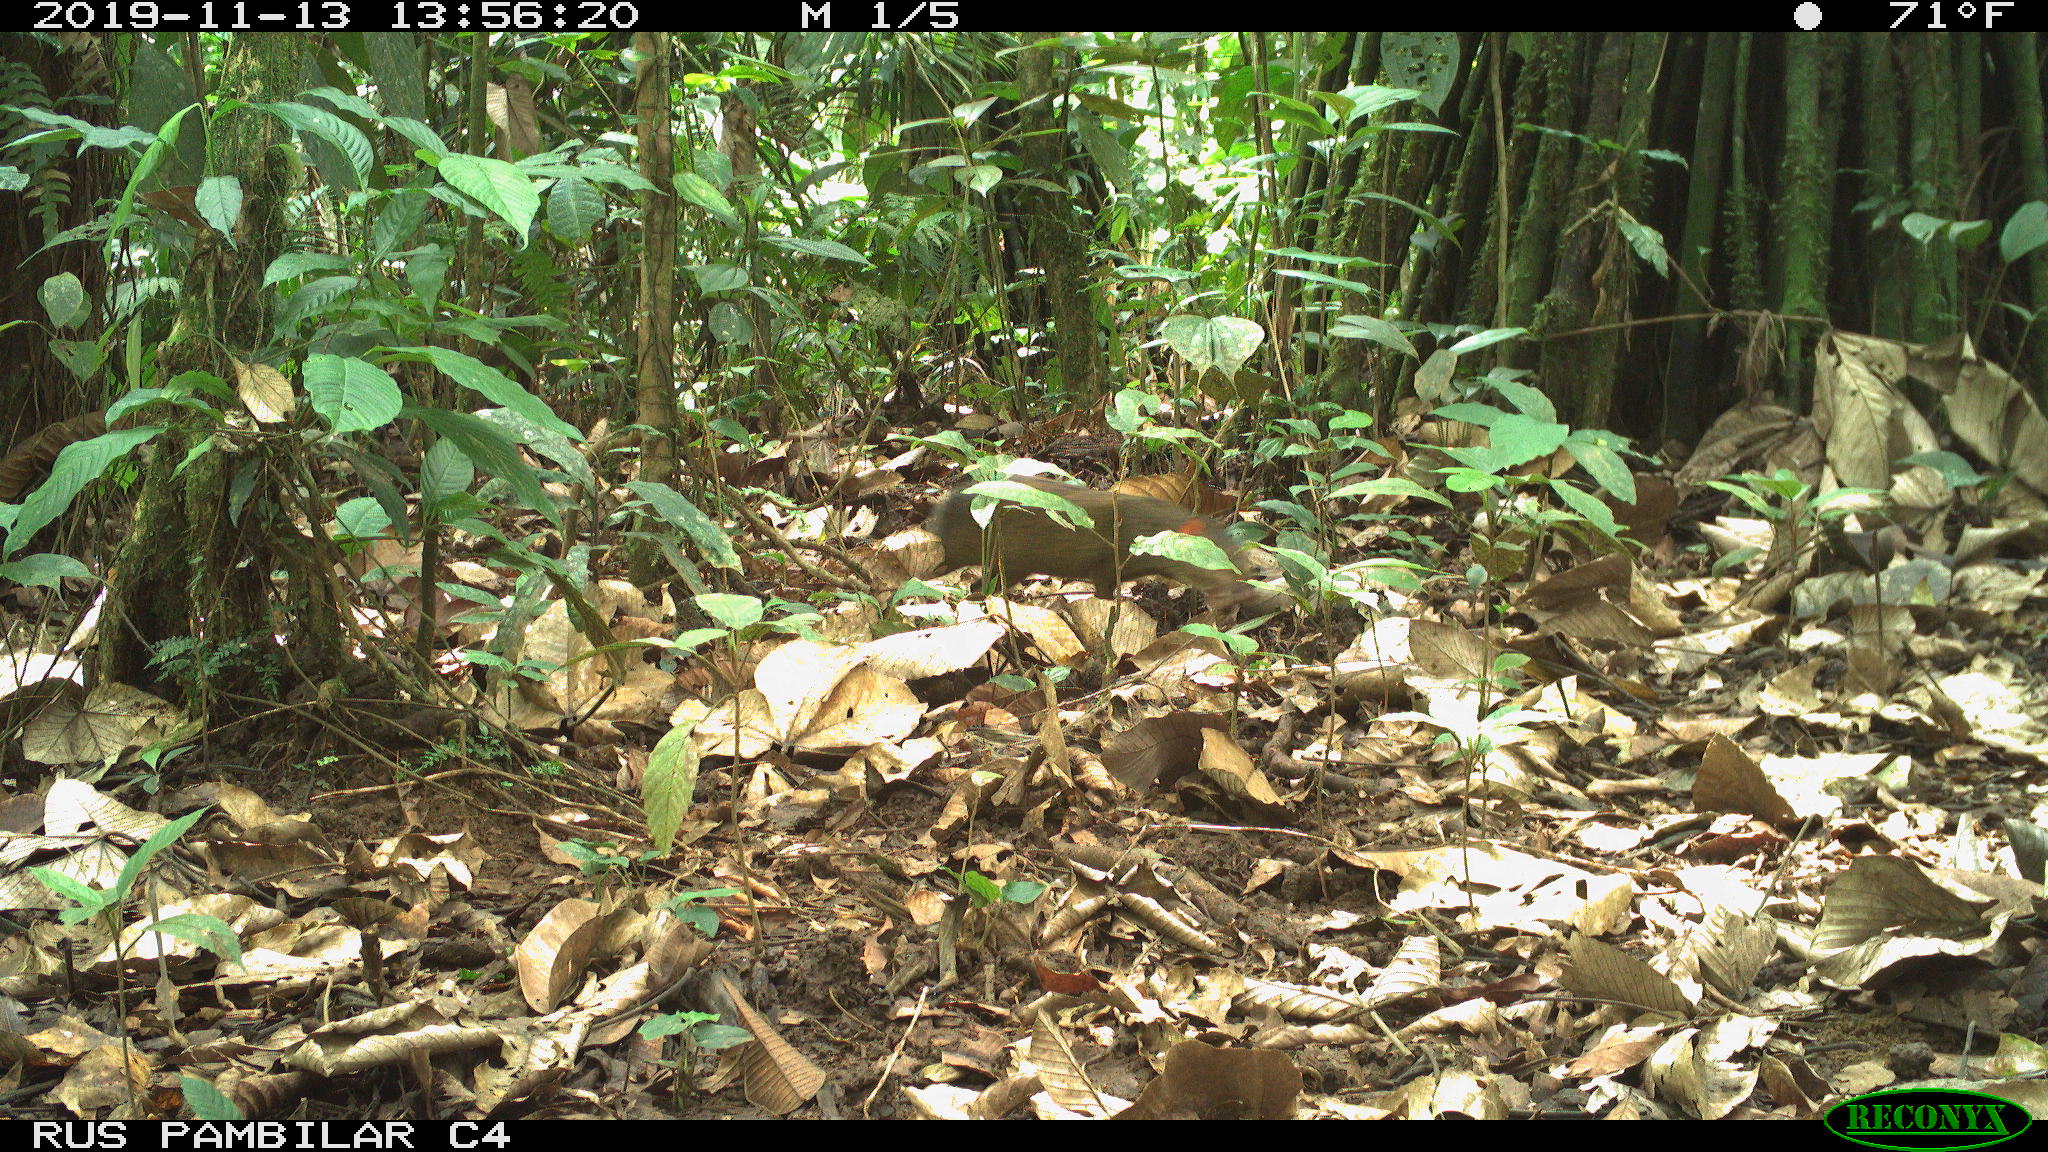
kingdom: Animalia
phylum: Chordata
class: Mammalia
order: Rodentia
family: Dasyproctidae
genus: Dasyprocta
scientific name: Dasyprocta punctata
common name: Central american agouti
